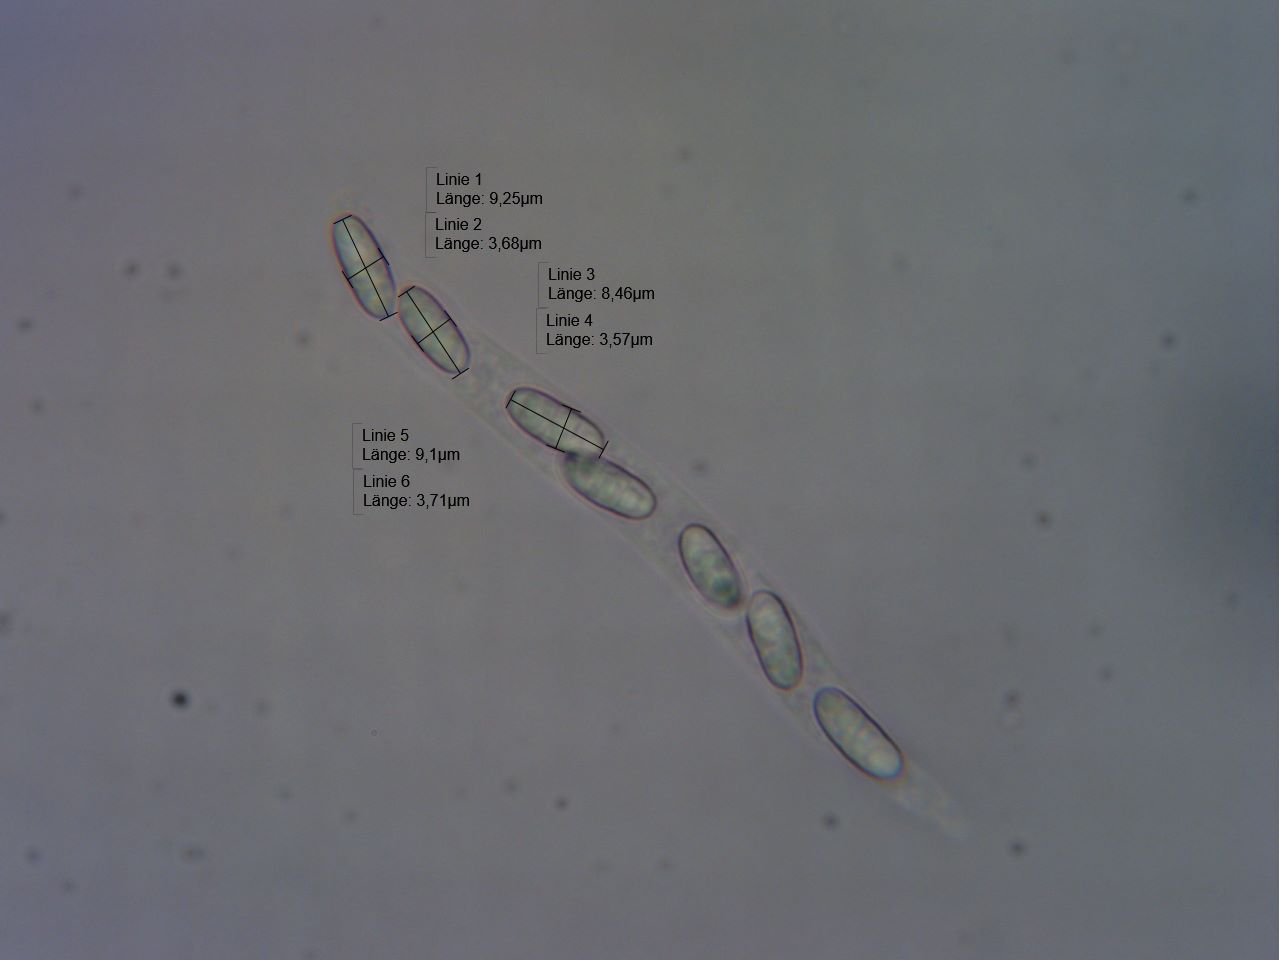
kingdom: Fungi
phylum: Ascomycota
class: Sordariomycetes
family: Lentomitellaceae
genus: Lentomitella
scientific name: Lentomitella cirrhosa
